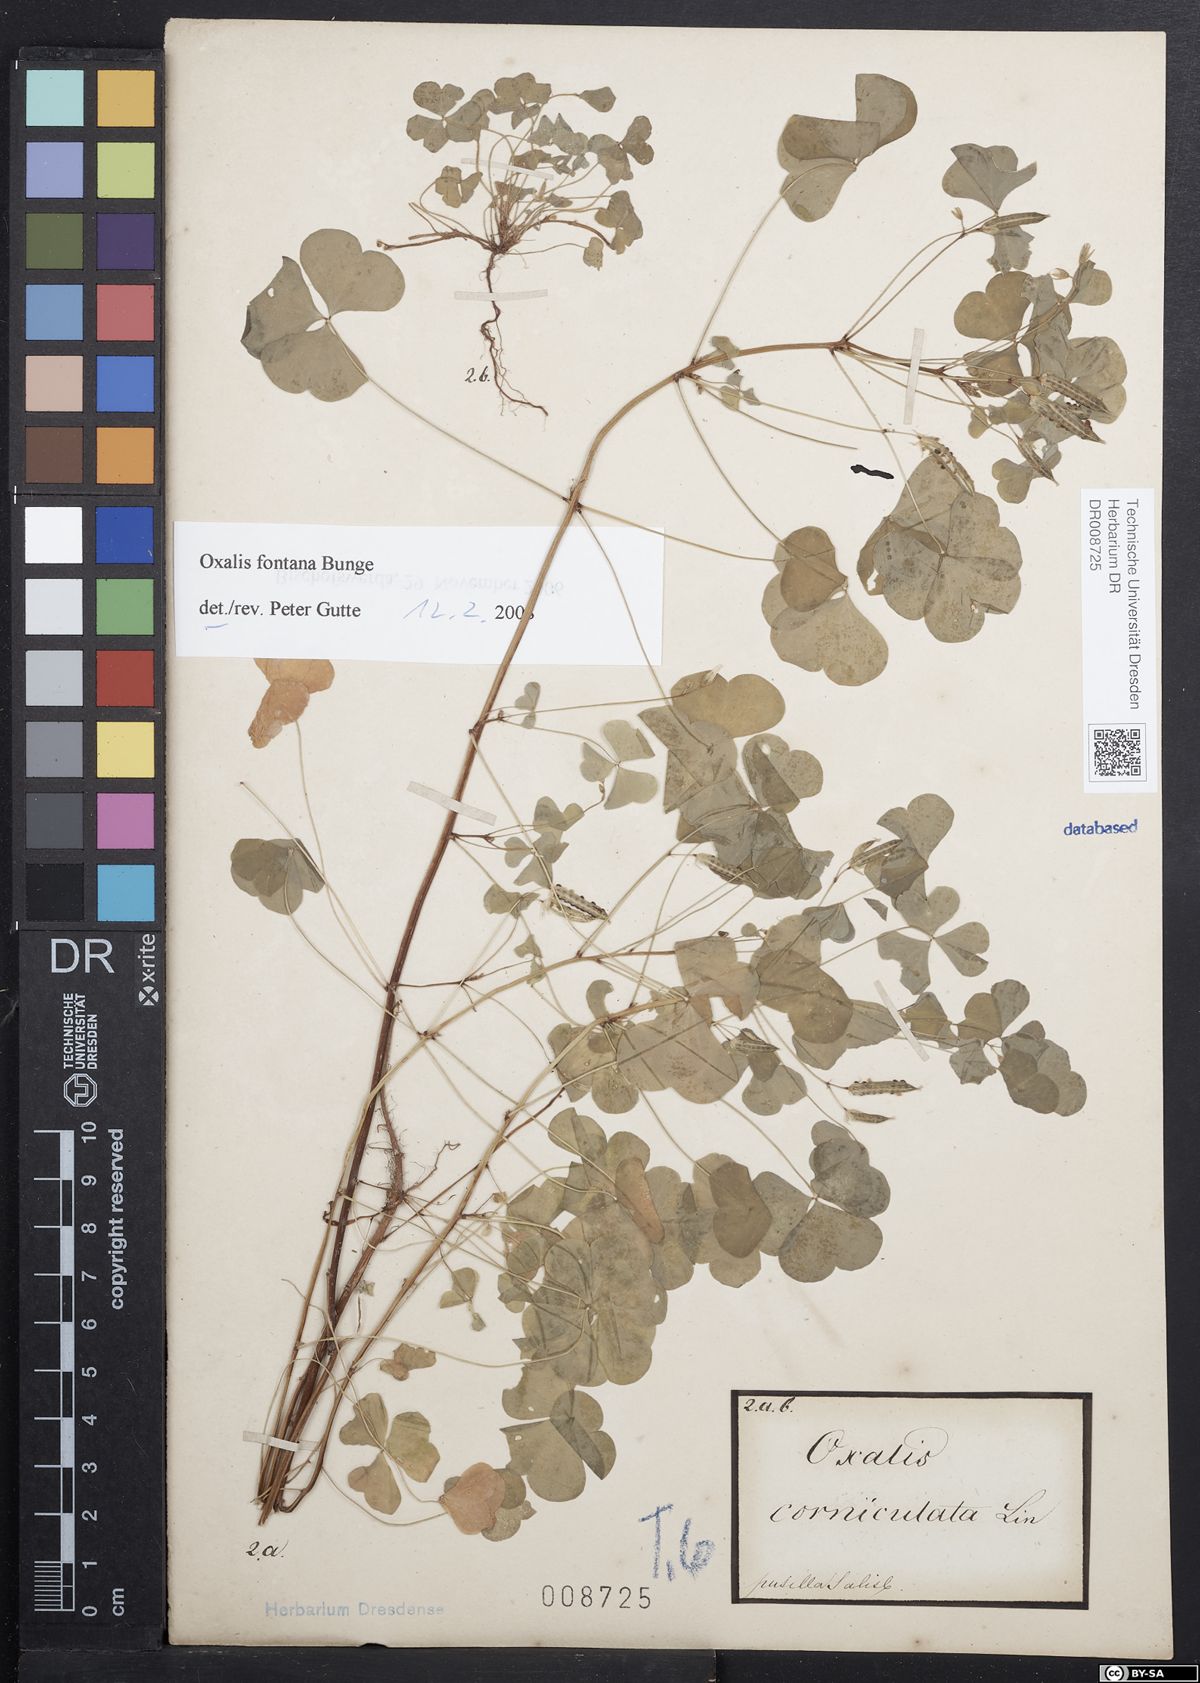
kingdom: Plantae
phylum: Tracheophyta
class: Magnoliopsida
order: Oxalidales
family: Oxalidaceae
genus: Oxalis
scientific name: Oxalis stricta
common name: Upright yellow-sorrel
